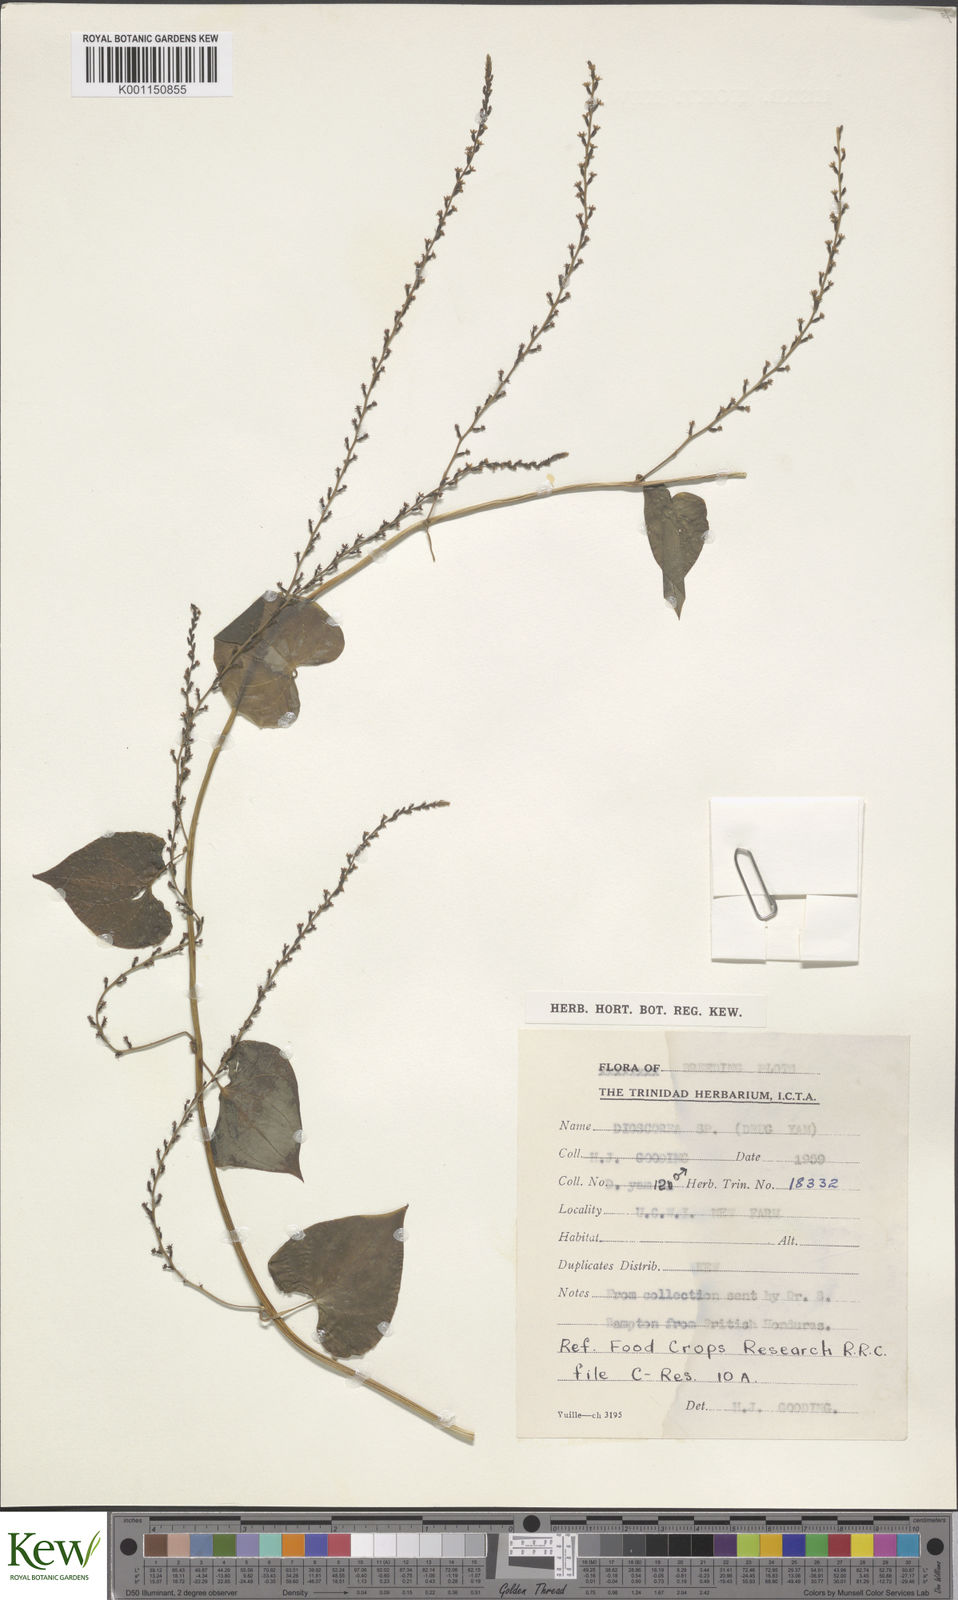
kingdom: Plantae
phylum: Tracheophyta
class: Liliopsida
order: Dioscoreales
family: Dioscoreaceae
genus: Dioscorea
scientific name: Dioscorea
